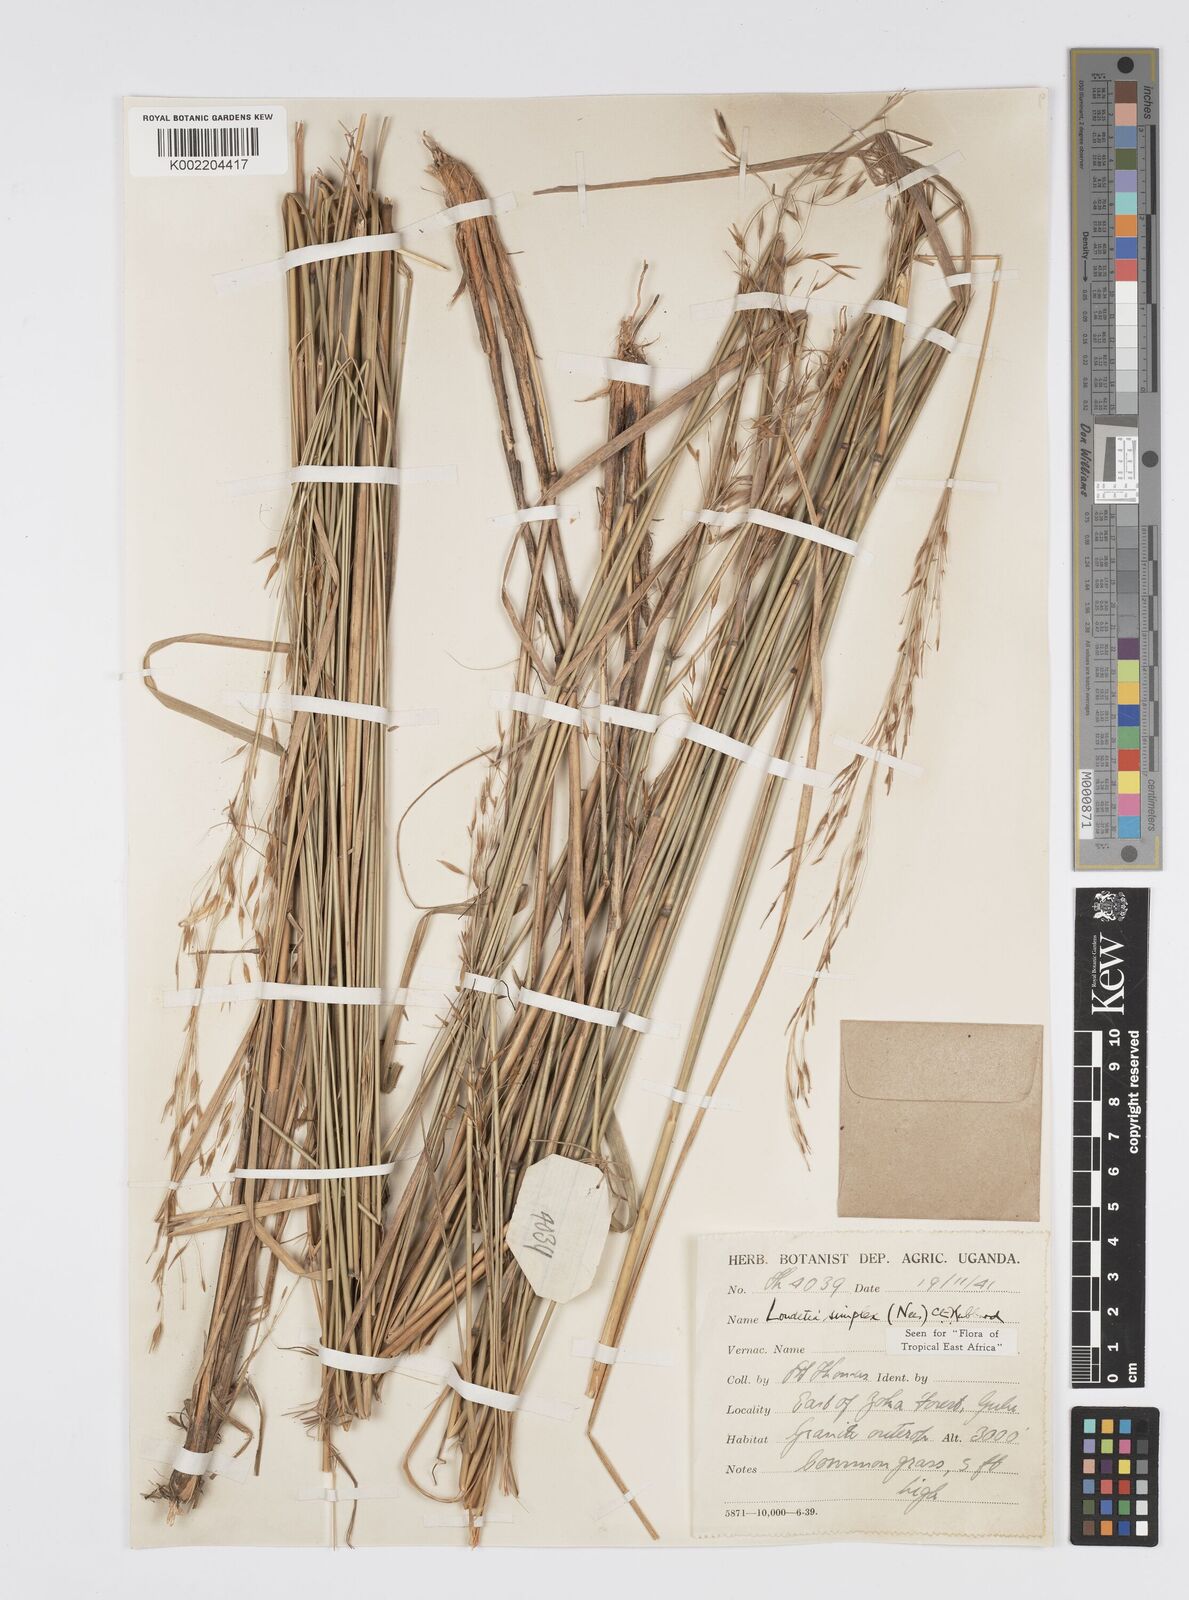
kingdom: Plantae
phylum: Tracheophyta
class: Liliopsida
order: Poales
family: Poaceae
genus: Loudetia
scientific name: Loudetia simplex
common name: Common russet grass
